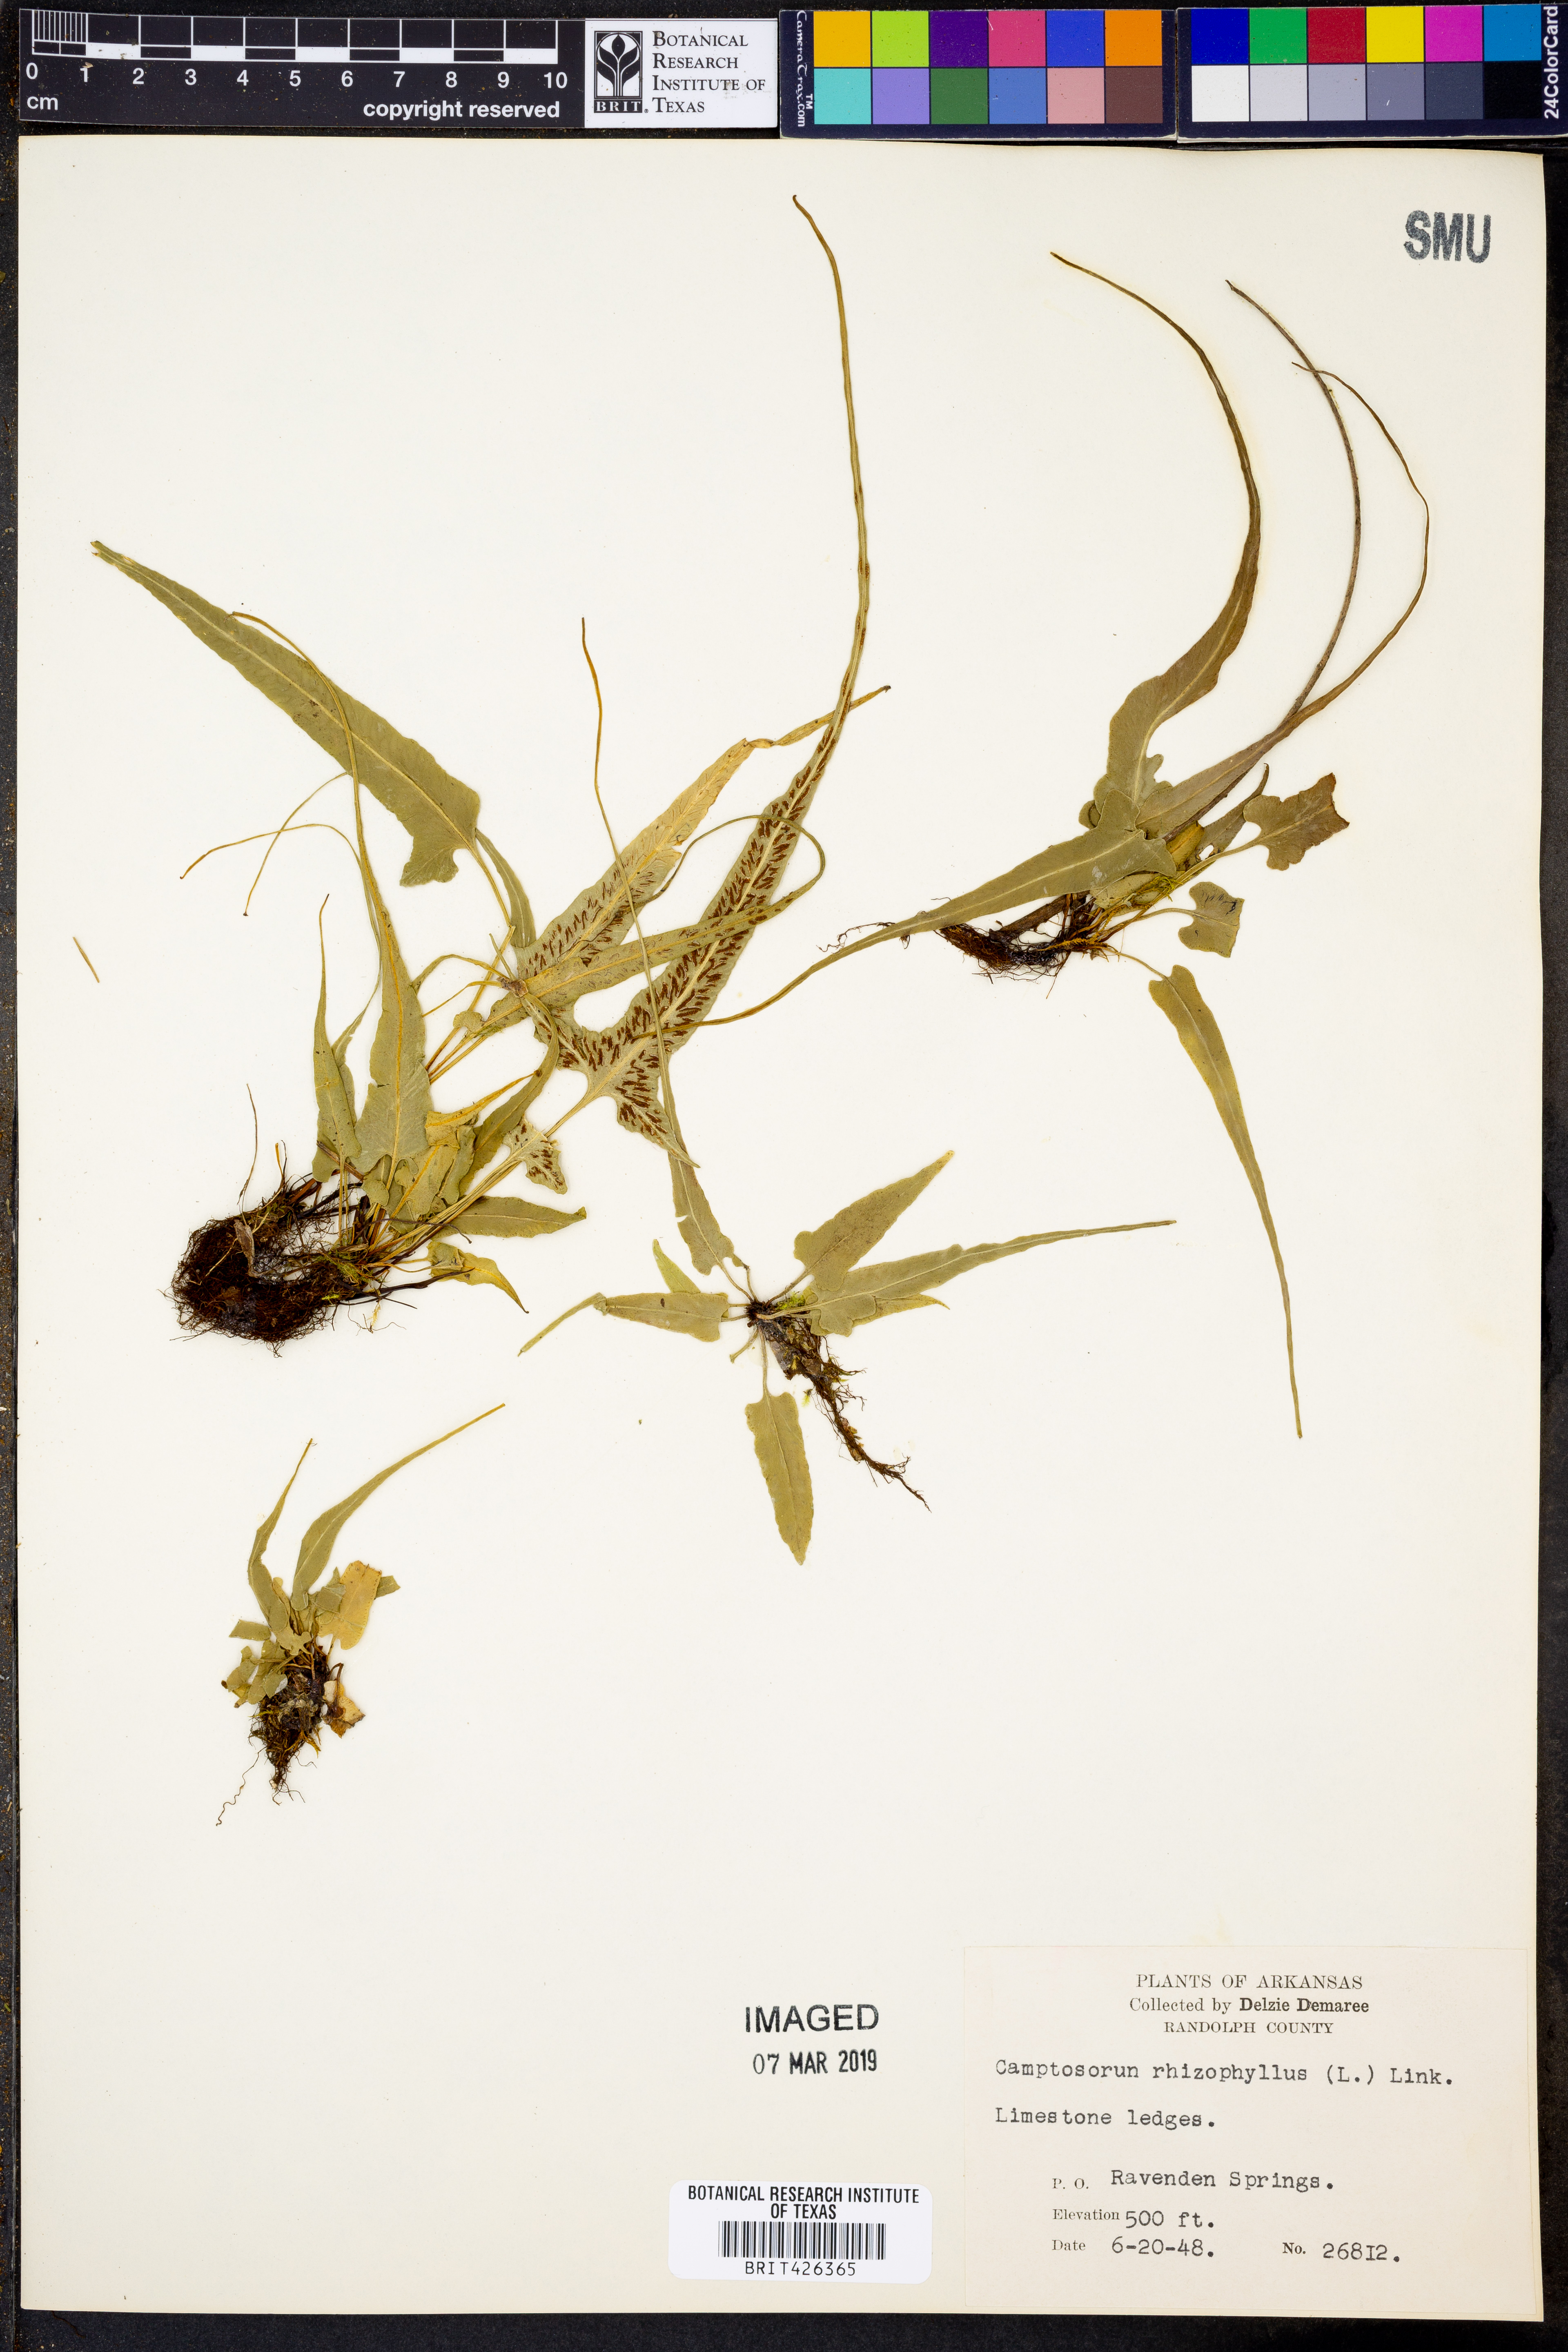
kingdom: Plantae
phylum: Tracheophyta
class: Polypodiopsida
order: Polypodiales
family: Aspleniaceae
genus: Asplenium
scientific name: Asplenium rhizophyllum
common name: Walking fern
